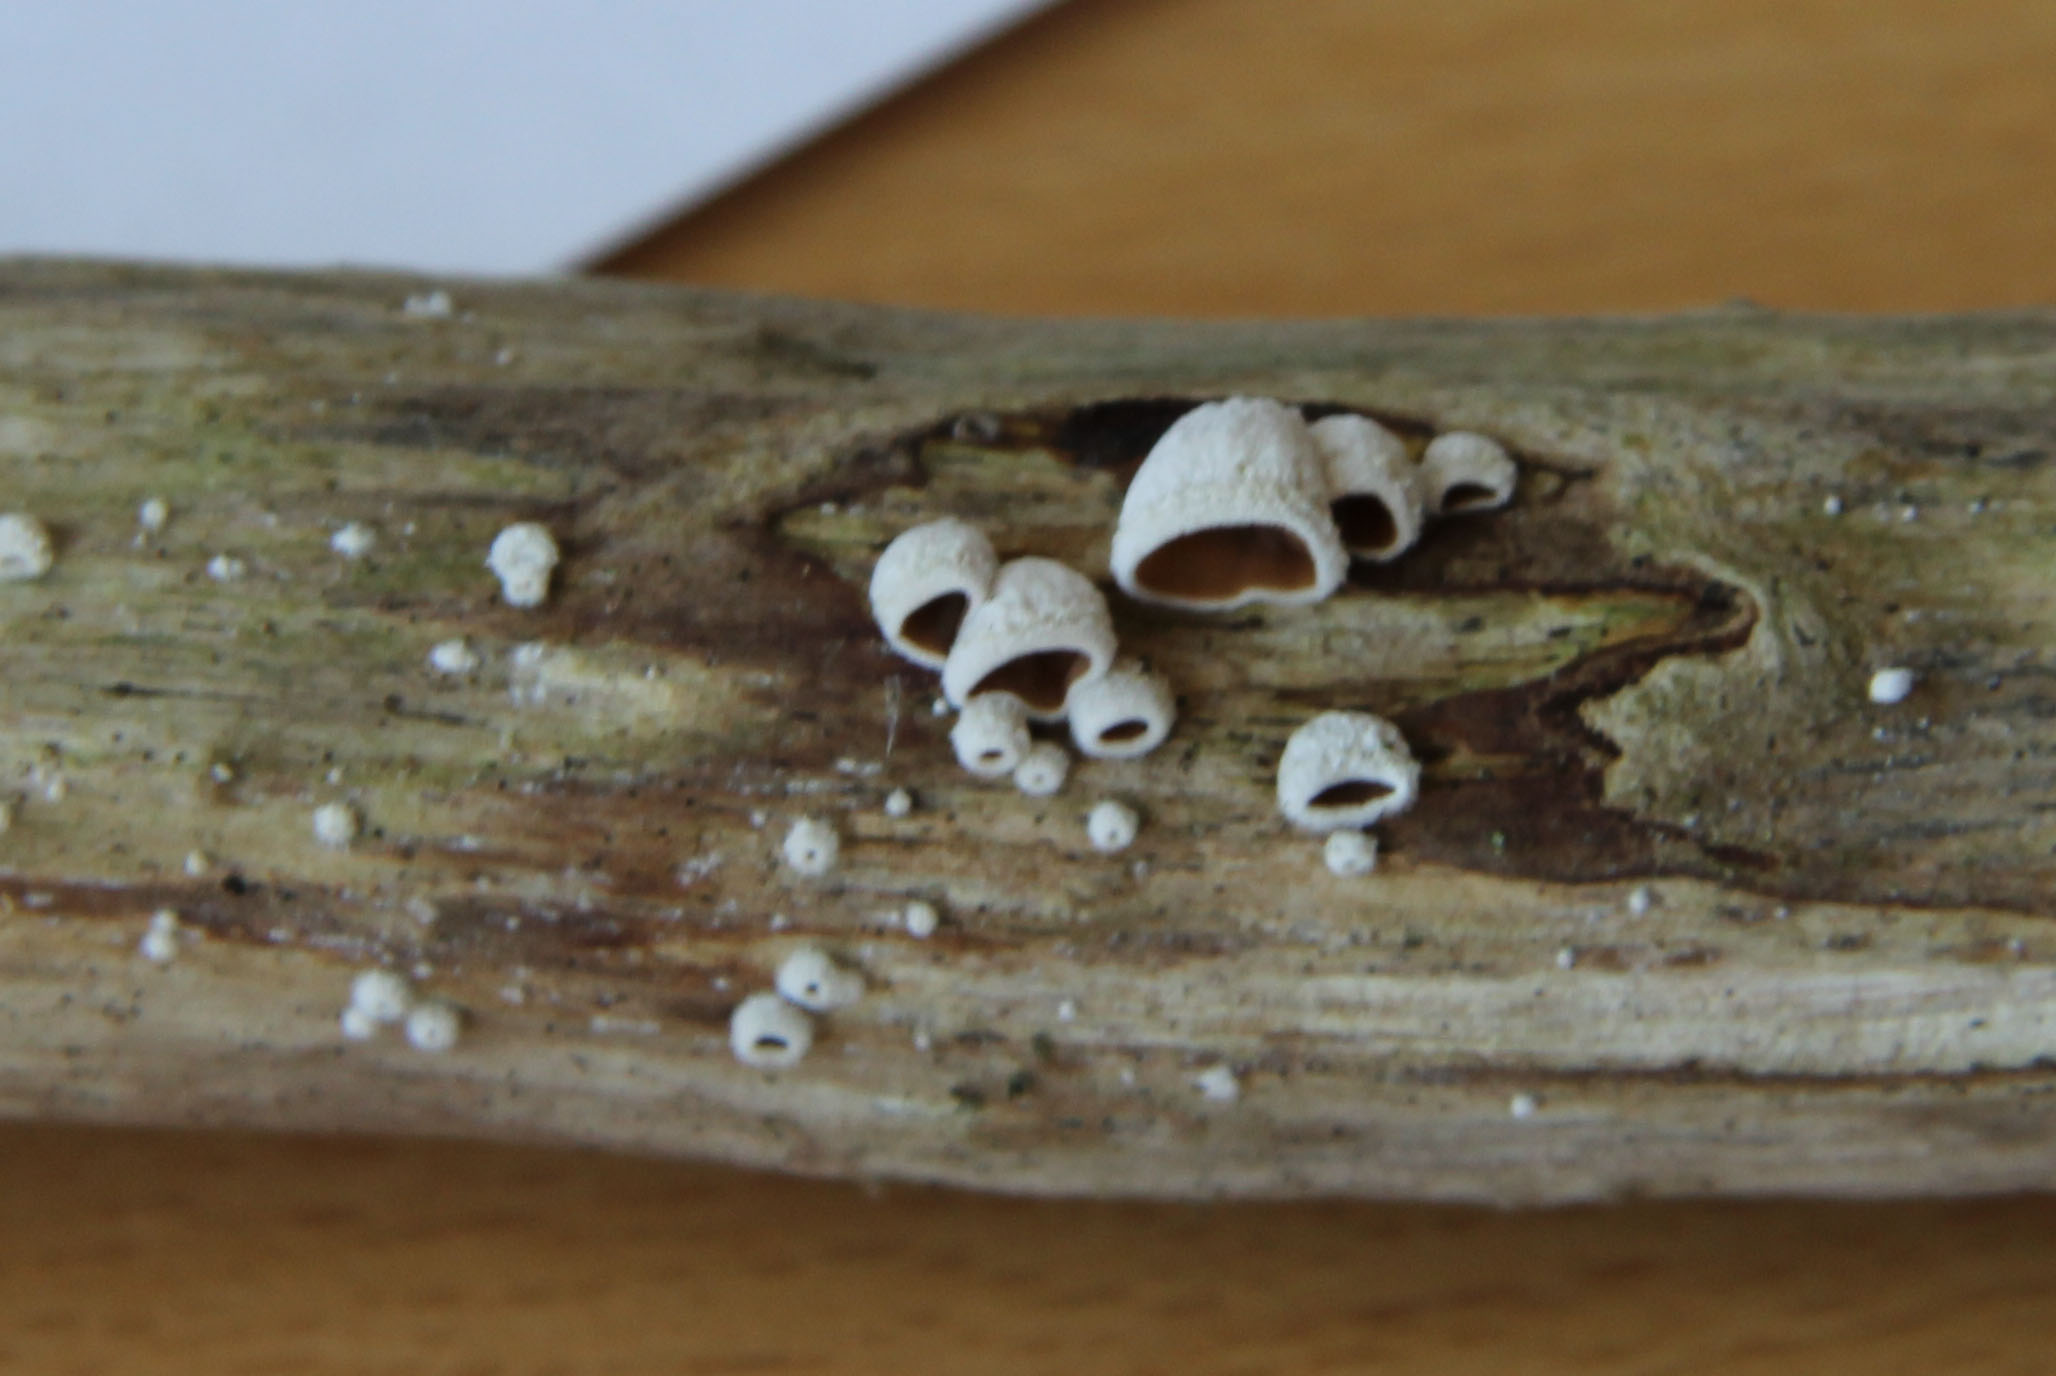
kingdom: Fungi
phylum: Basidiomycota
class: Agaricomycetes
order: Agaricales
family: Schizophyllaceae
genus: Schizophyllum
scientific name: Schizophyllum amplum
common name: poppel-hængeøre
